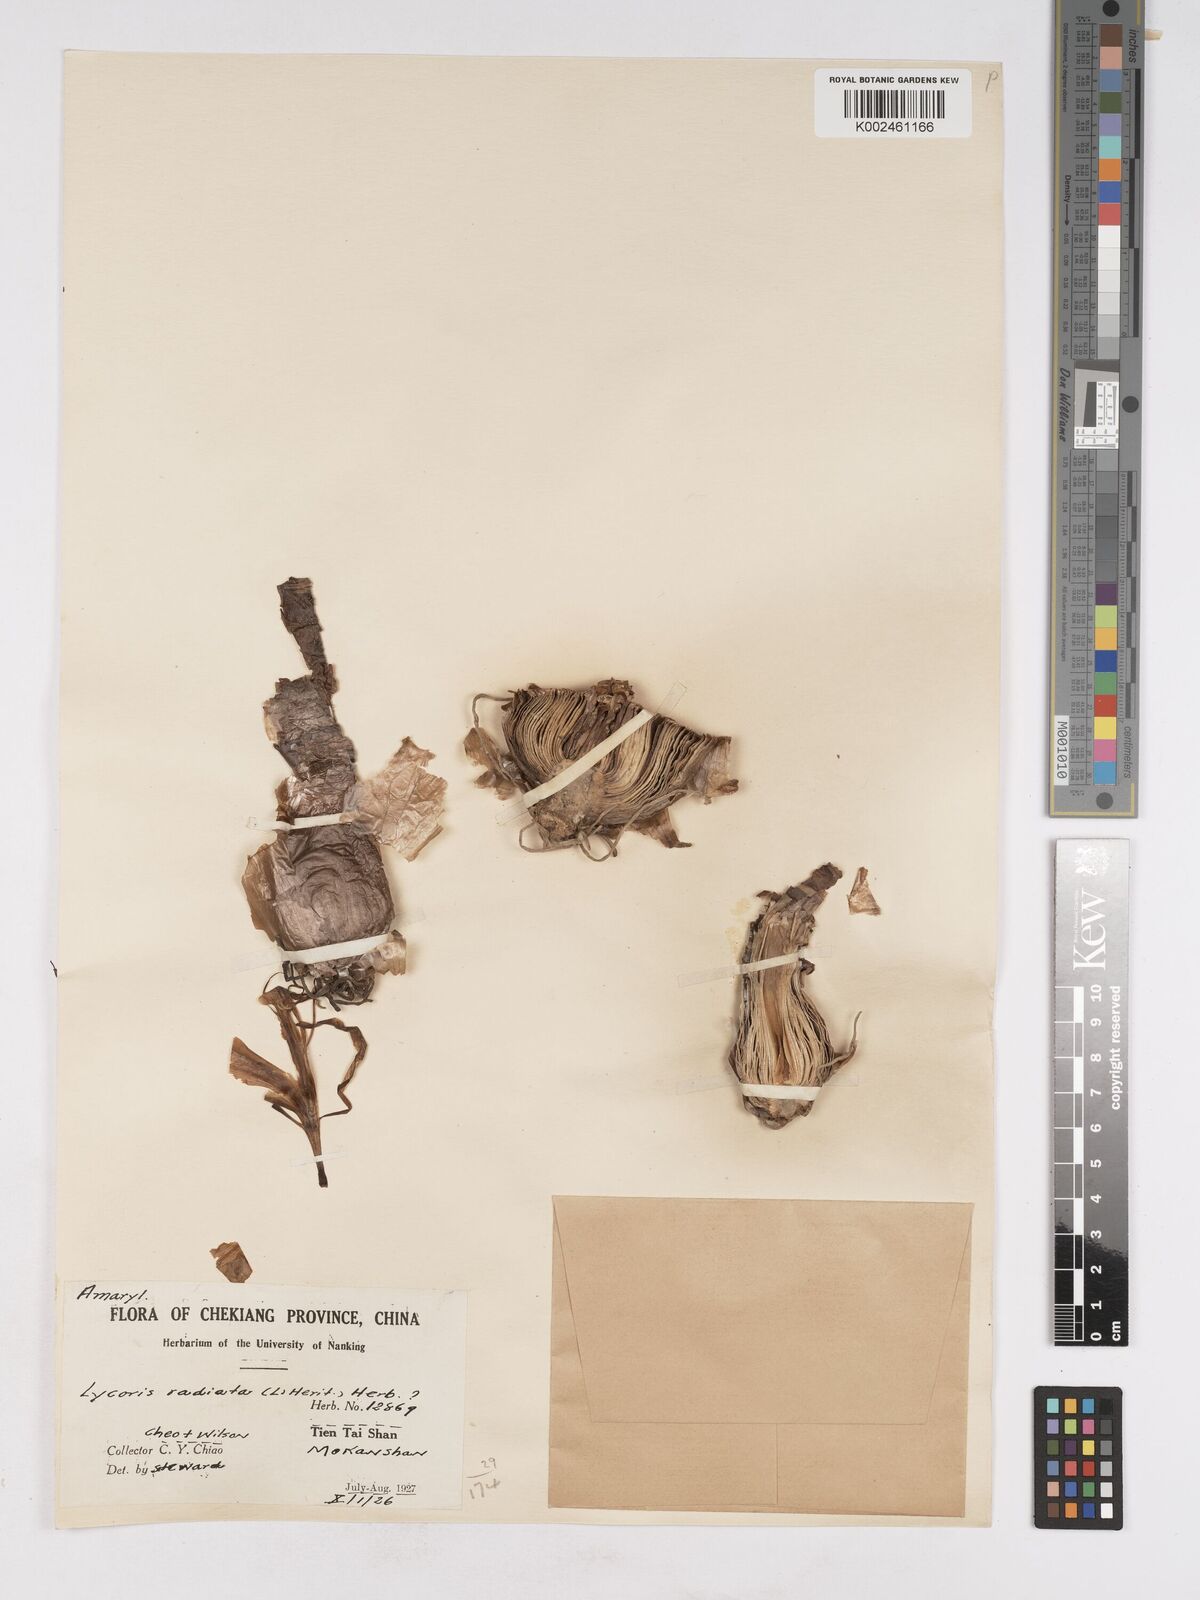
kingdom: Plantae
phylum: Tracheophyta
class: Liliopsida
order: Asparagales
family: Amaryllidaceae
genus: Lycoris
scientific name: Lycoris radiata
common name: Red spider lily
